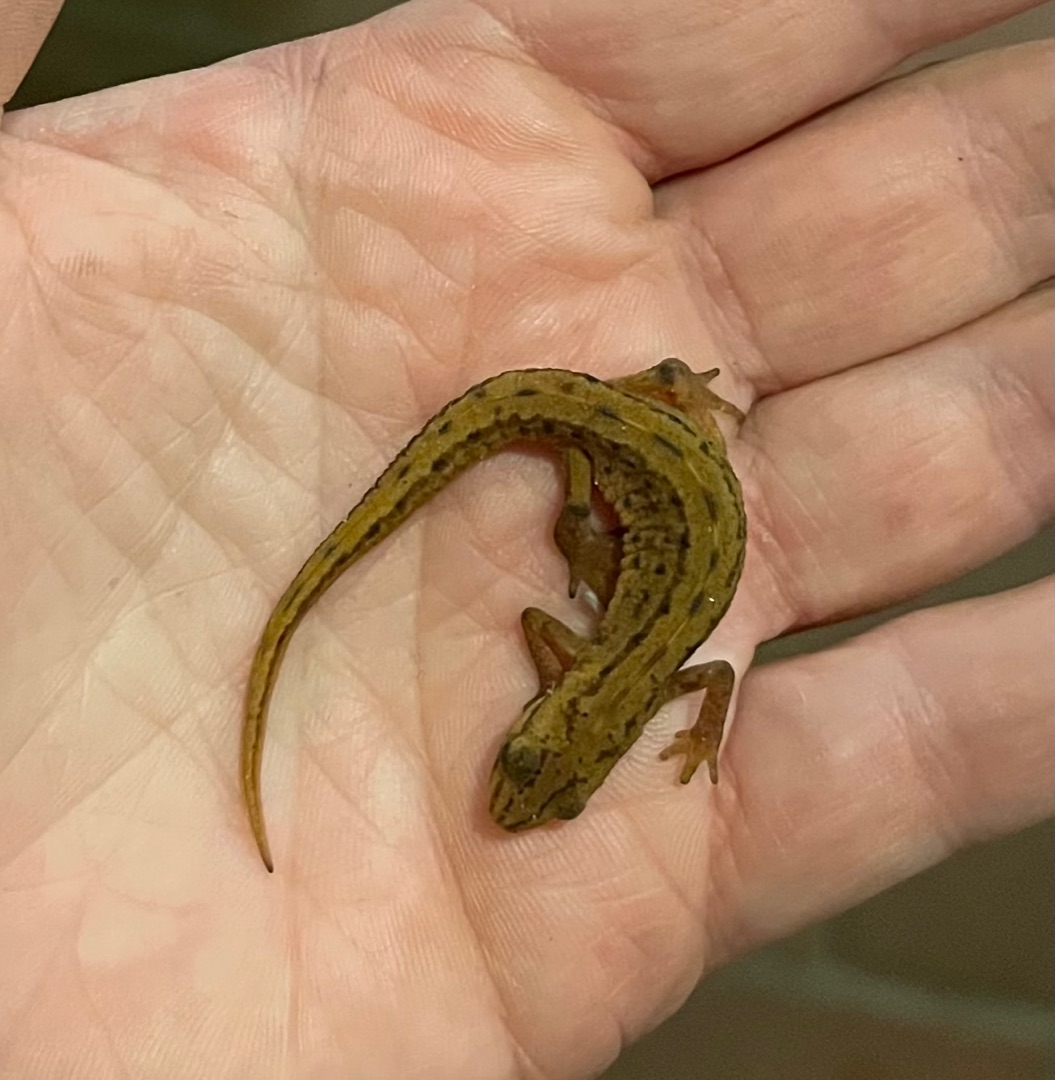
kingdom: Animalia
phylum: Chordata
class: Amphibia
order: Caudata
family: Salamandridae
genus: Lissotriton
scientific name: Lissotriton vulgaris
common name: Lille vandsalamander
